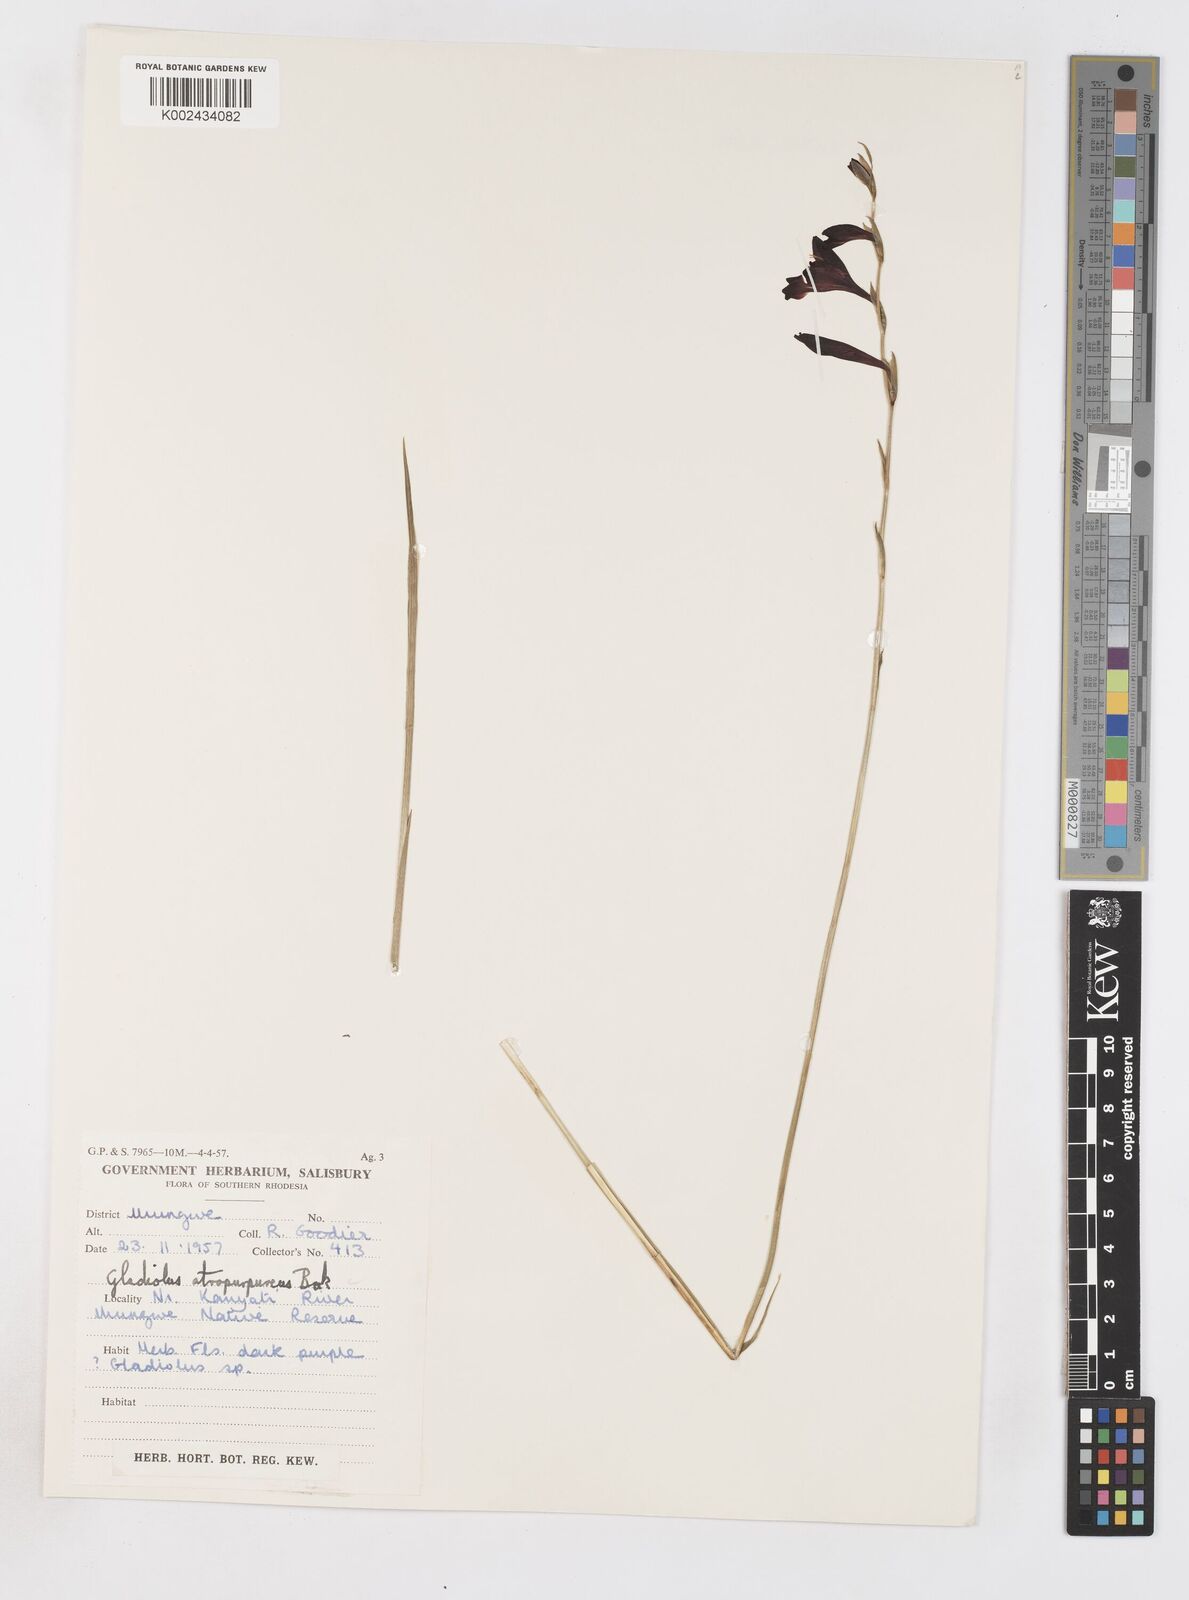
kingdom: Plantae
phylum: Tracheophyta
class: Liliopsida
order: Asparagales
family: Iridaceae
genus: Gladiolus
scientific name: Gladiolus atropurpureus
